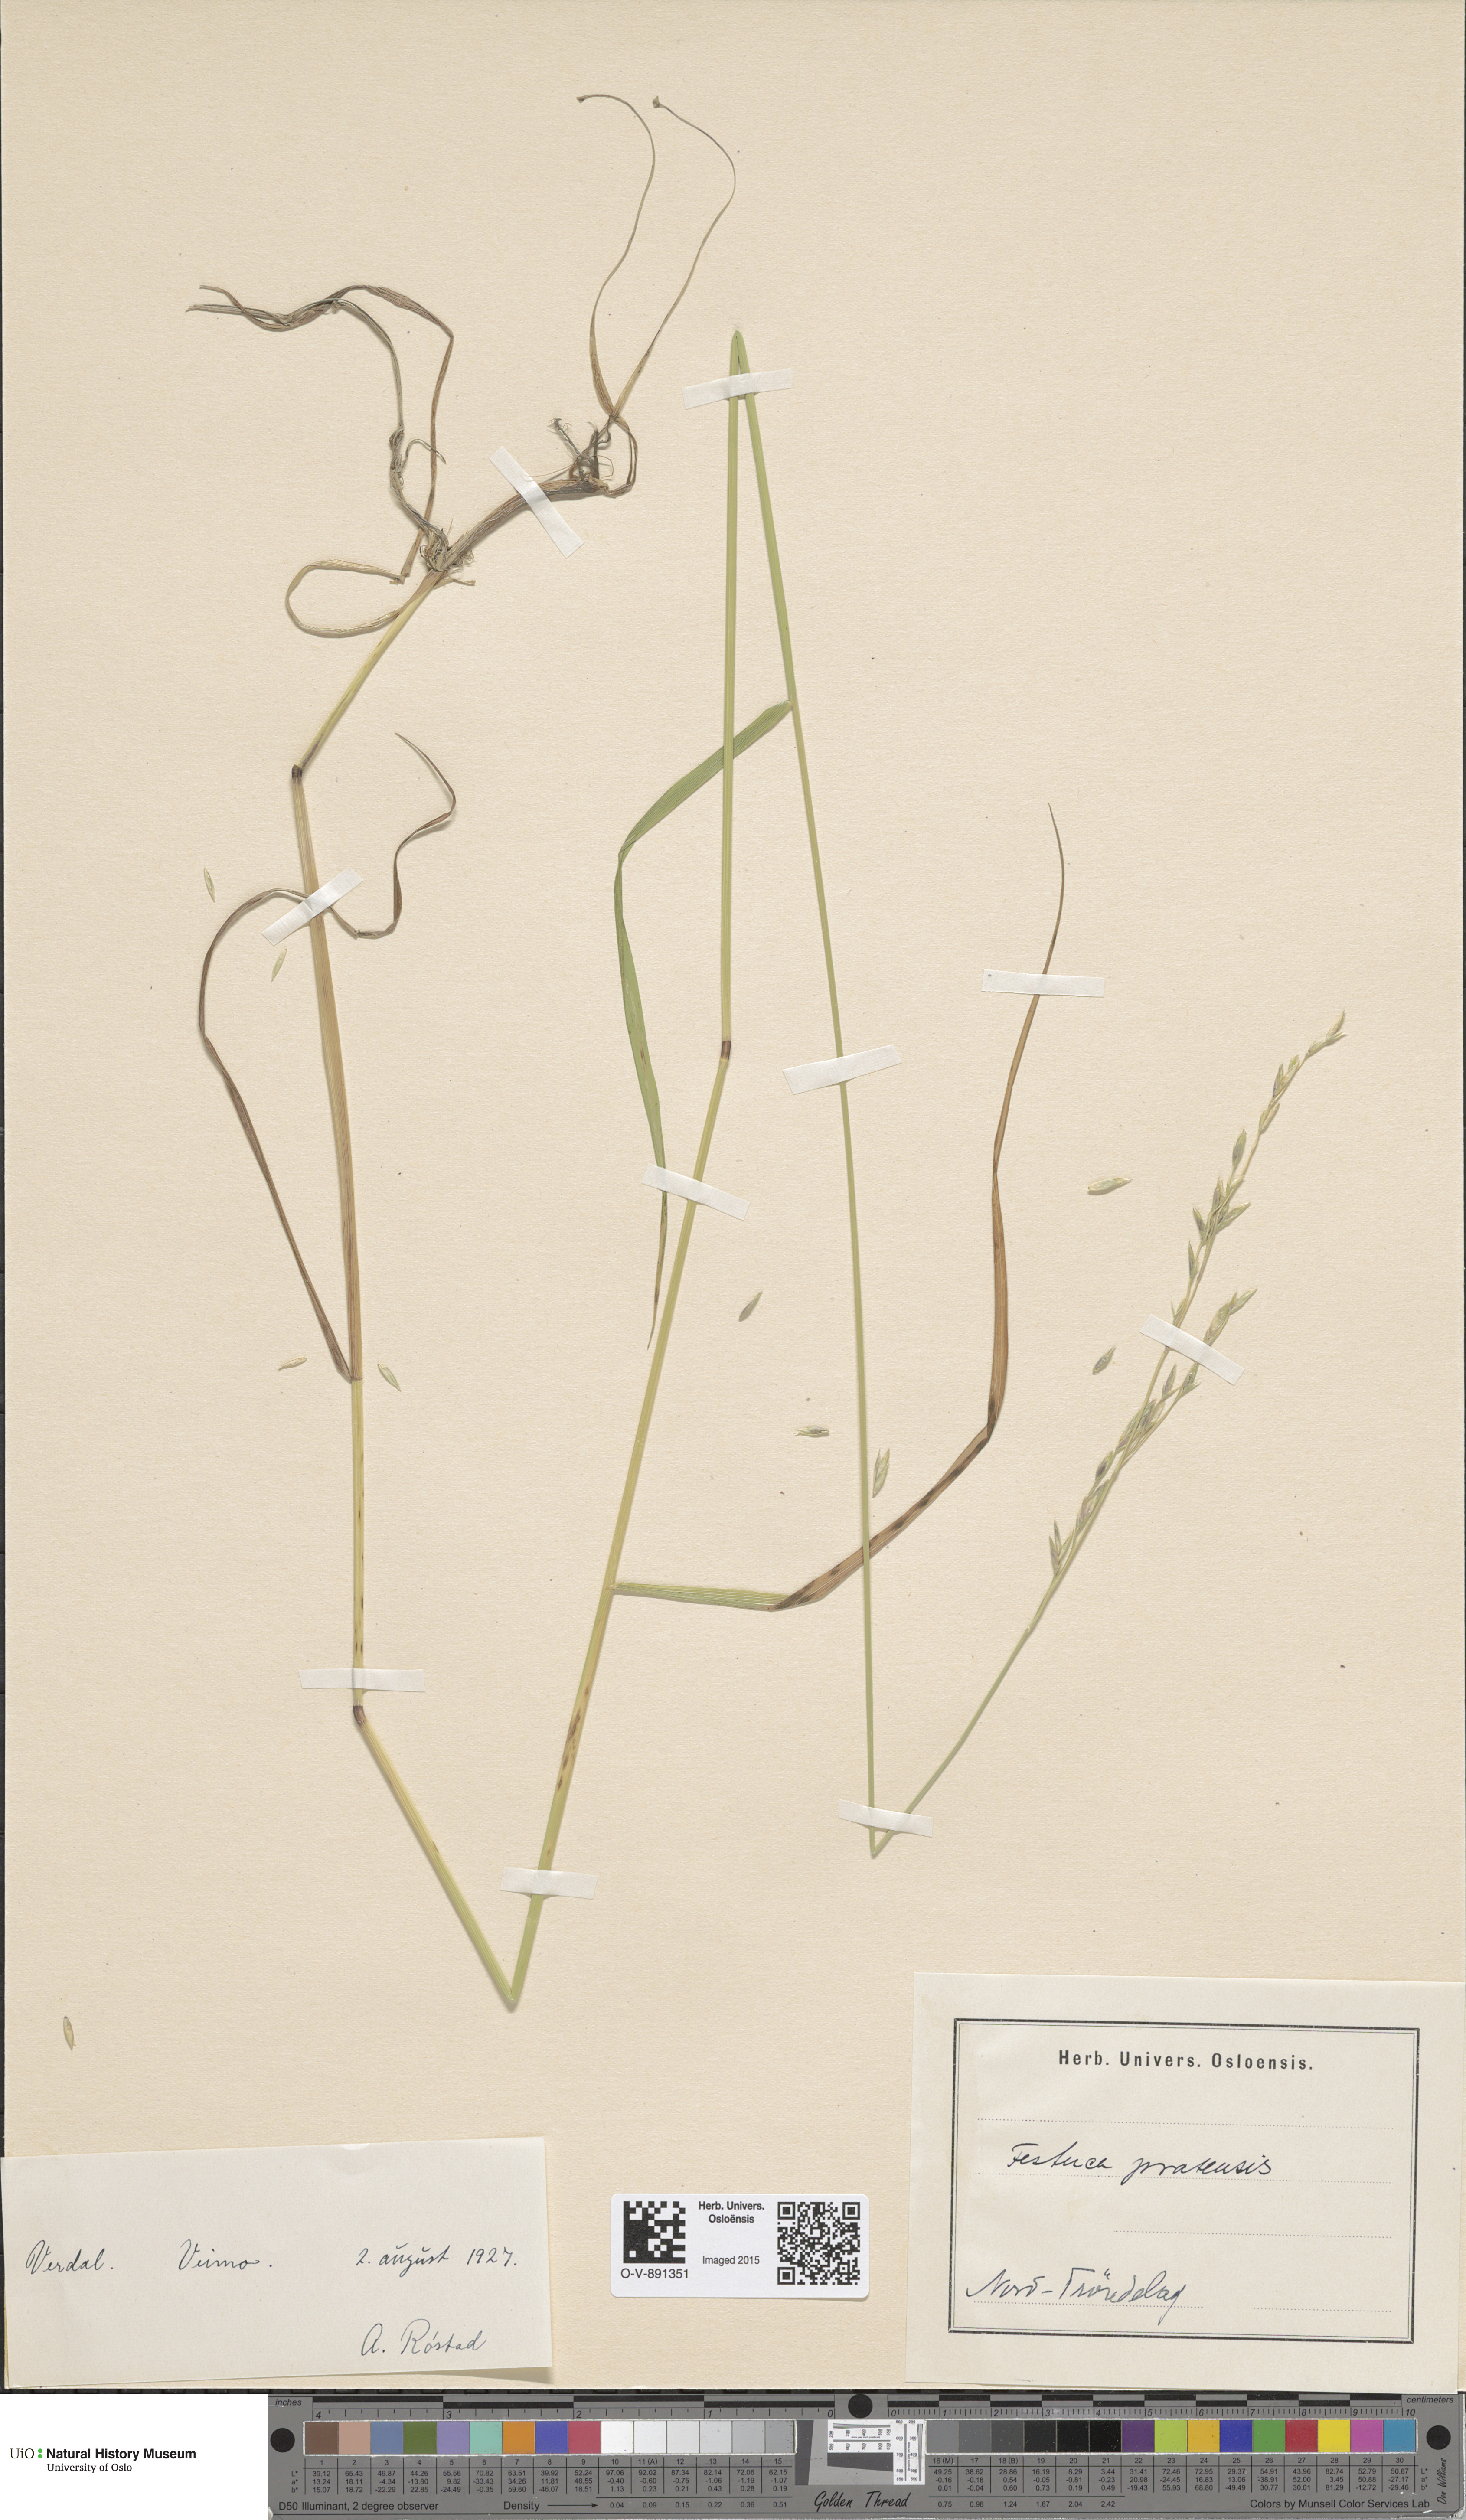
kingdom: Plantae
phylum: Tracheophyta
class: Liliopsida
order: Poales
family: Poaceae
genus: Lolium
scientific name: Lolium pratense
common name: Dover grass
